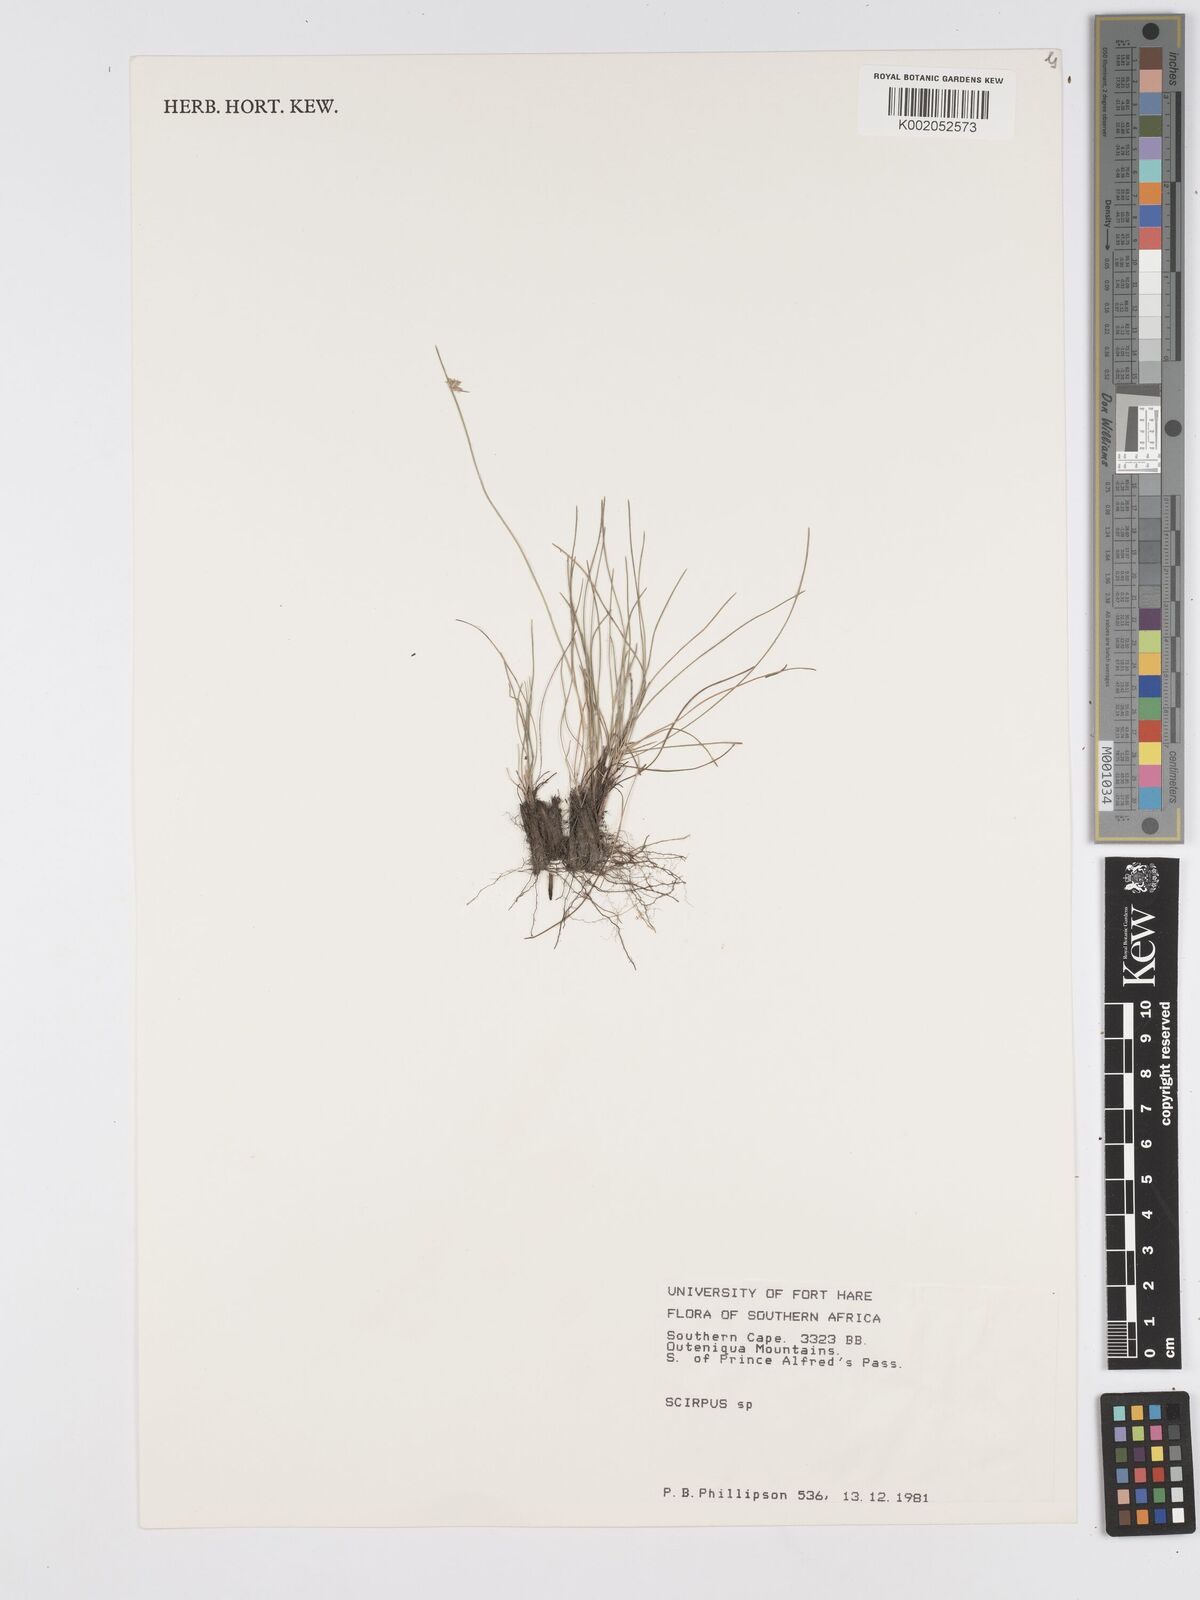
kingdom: Plantae
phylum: Tracheophyta
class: Liliopsida
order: Poales
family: Cyperaceae
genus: Scirpus
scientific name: Scirpus
